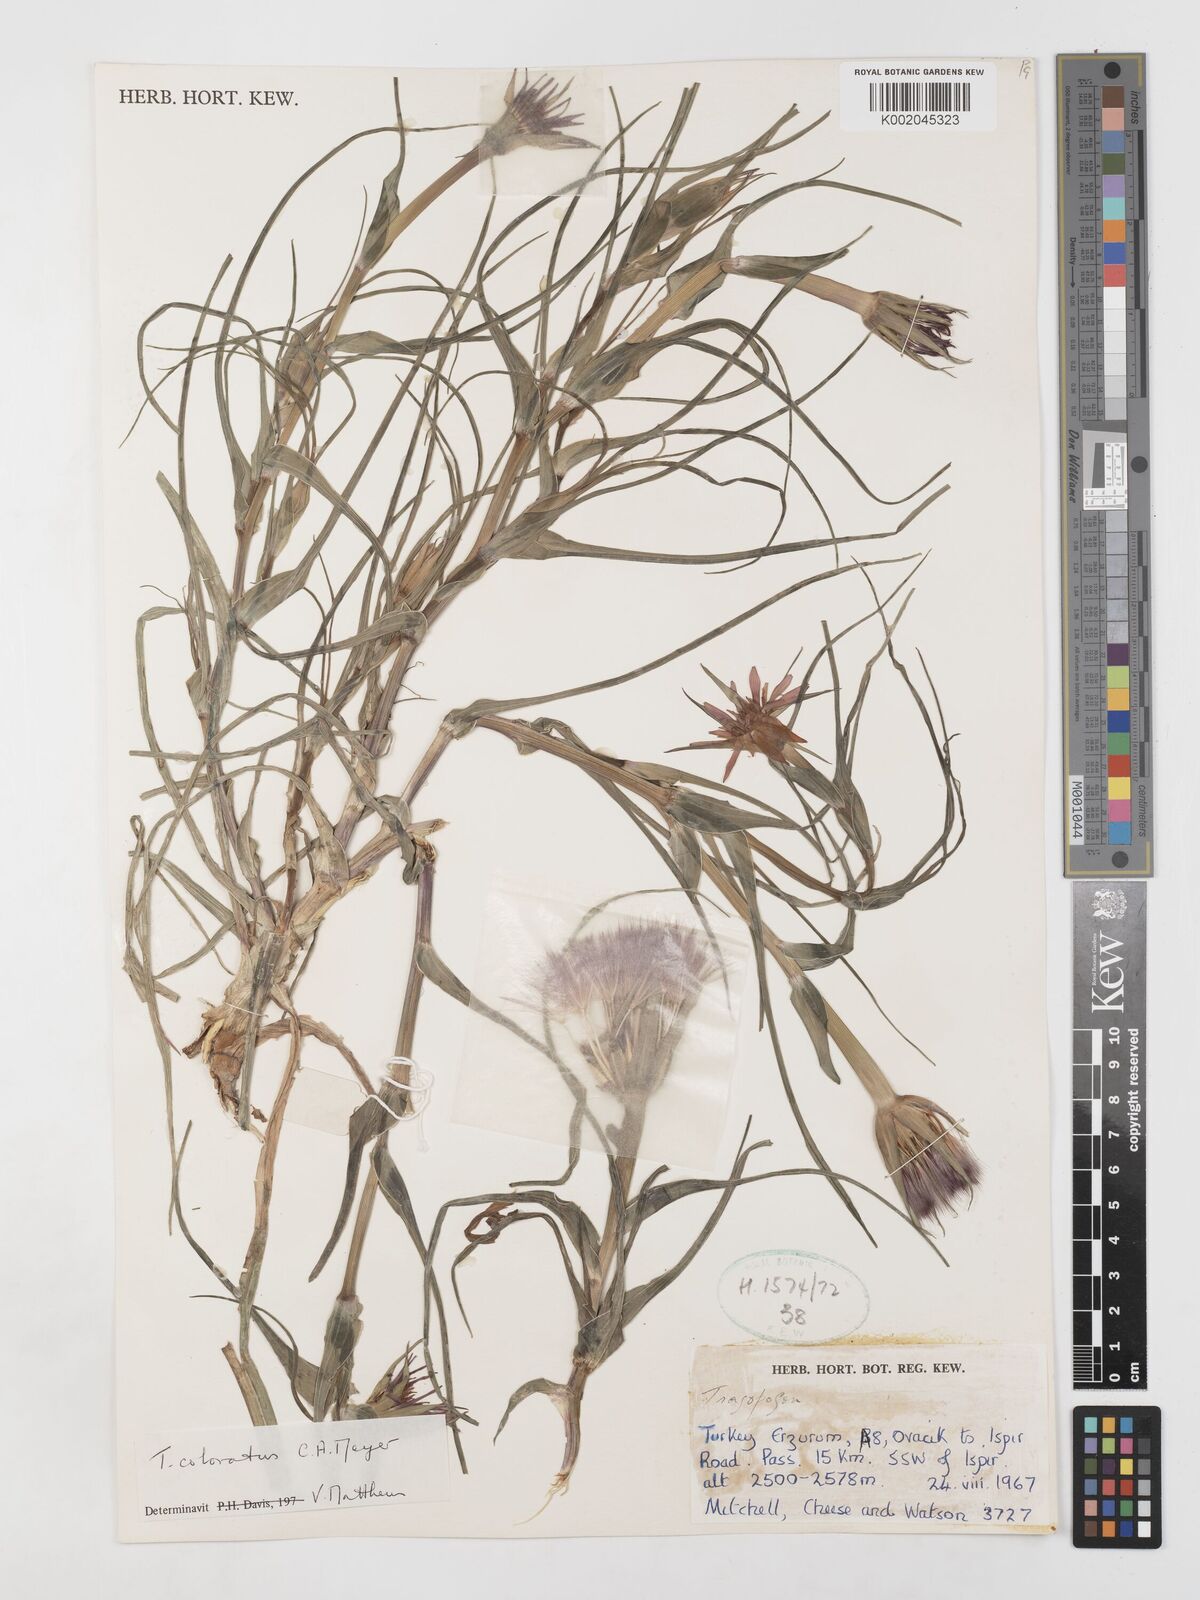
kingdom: Plantae
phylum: Tracheophyta
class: Magnoliopsida
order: Asterales
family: Asteraceae
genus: Tragopogon
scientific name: Tragopogon coloratus
